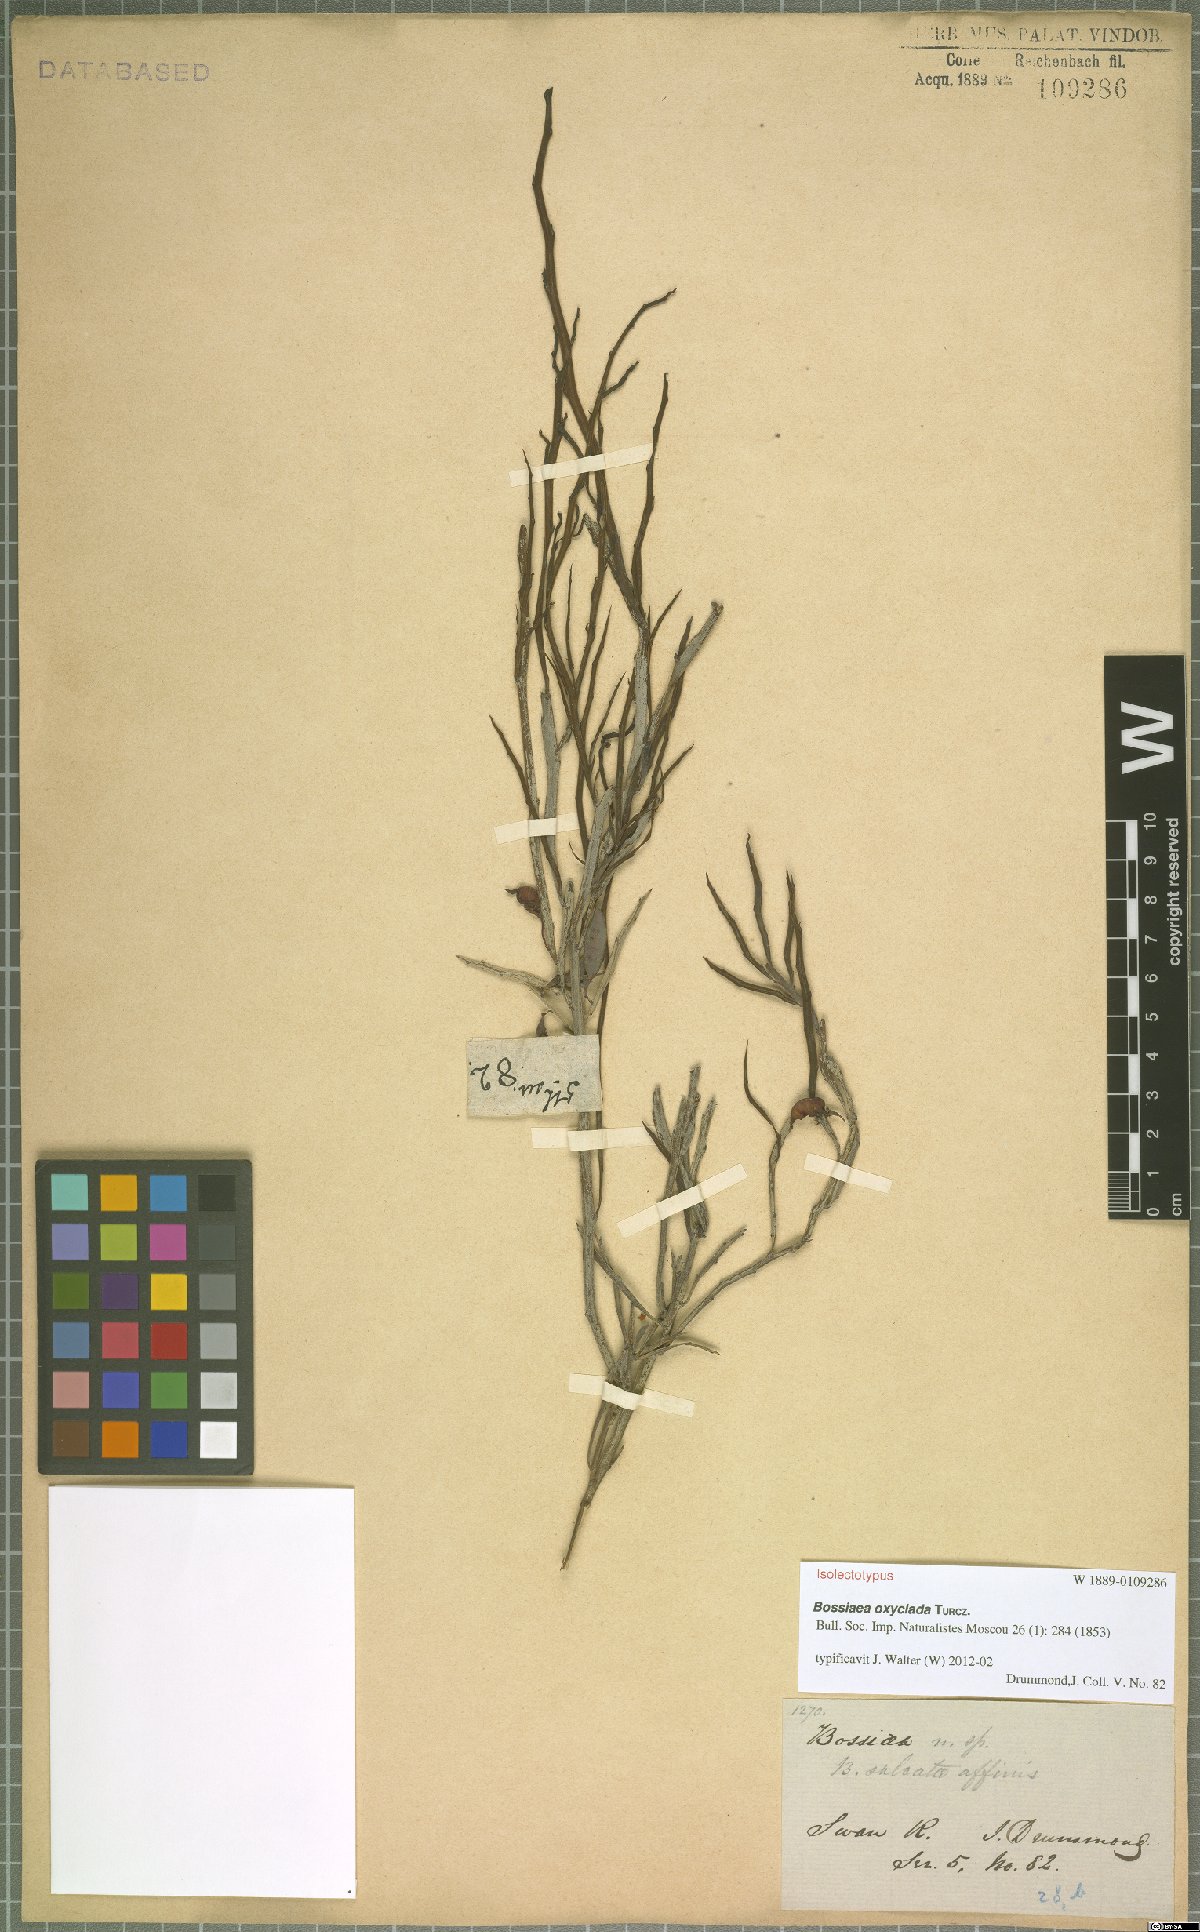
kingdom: Plantae
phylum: Tracheophyta
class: Magnoliopsida
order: Fabales
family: Fabaceae
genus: Bossiaea
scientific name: Bossiaea oxyclada
